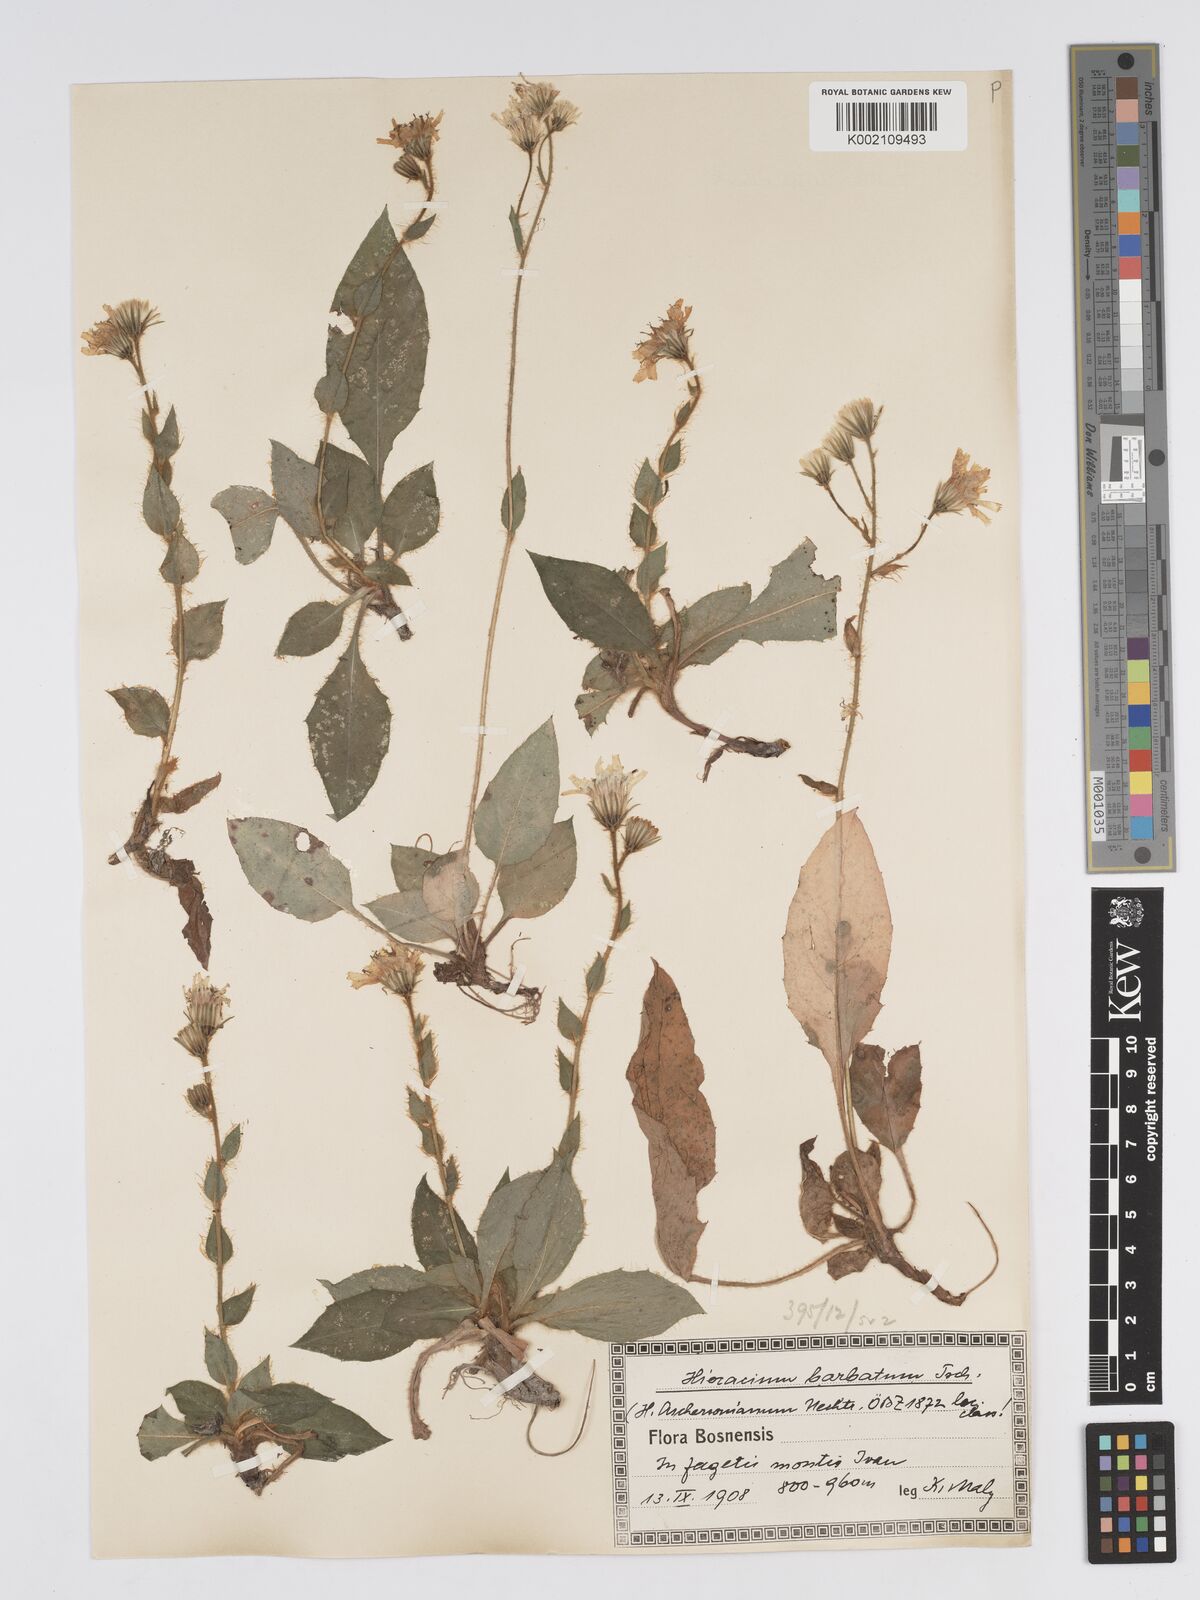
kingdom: Plantae
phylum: Tracheophyta
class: Magnoliopsida
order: Asterales
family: Asteraceae
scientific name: Asteraceae
